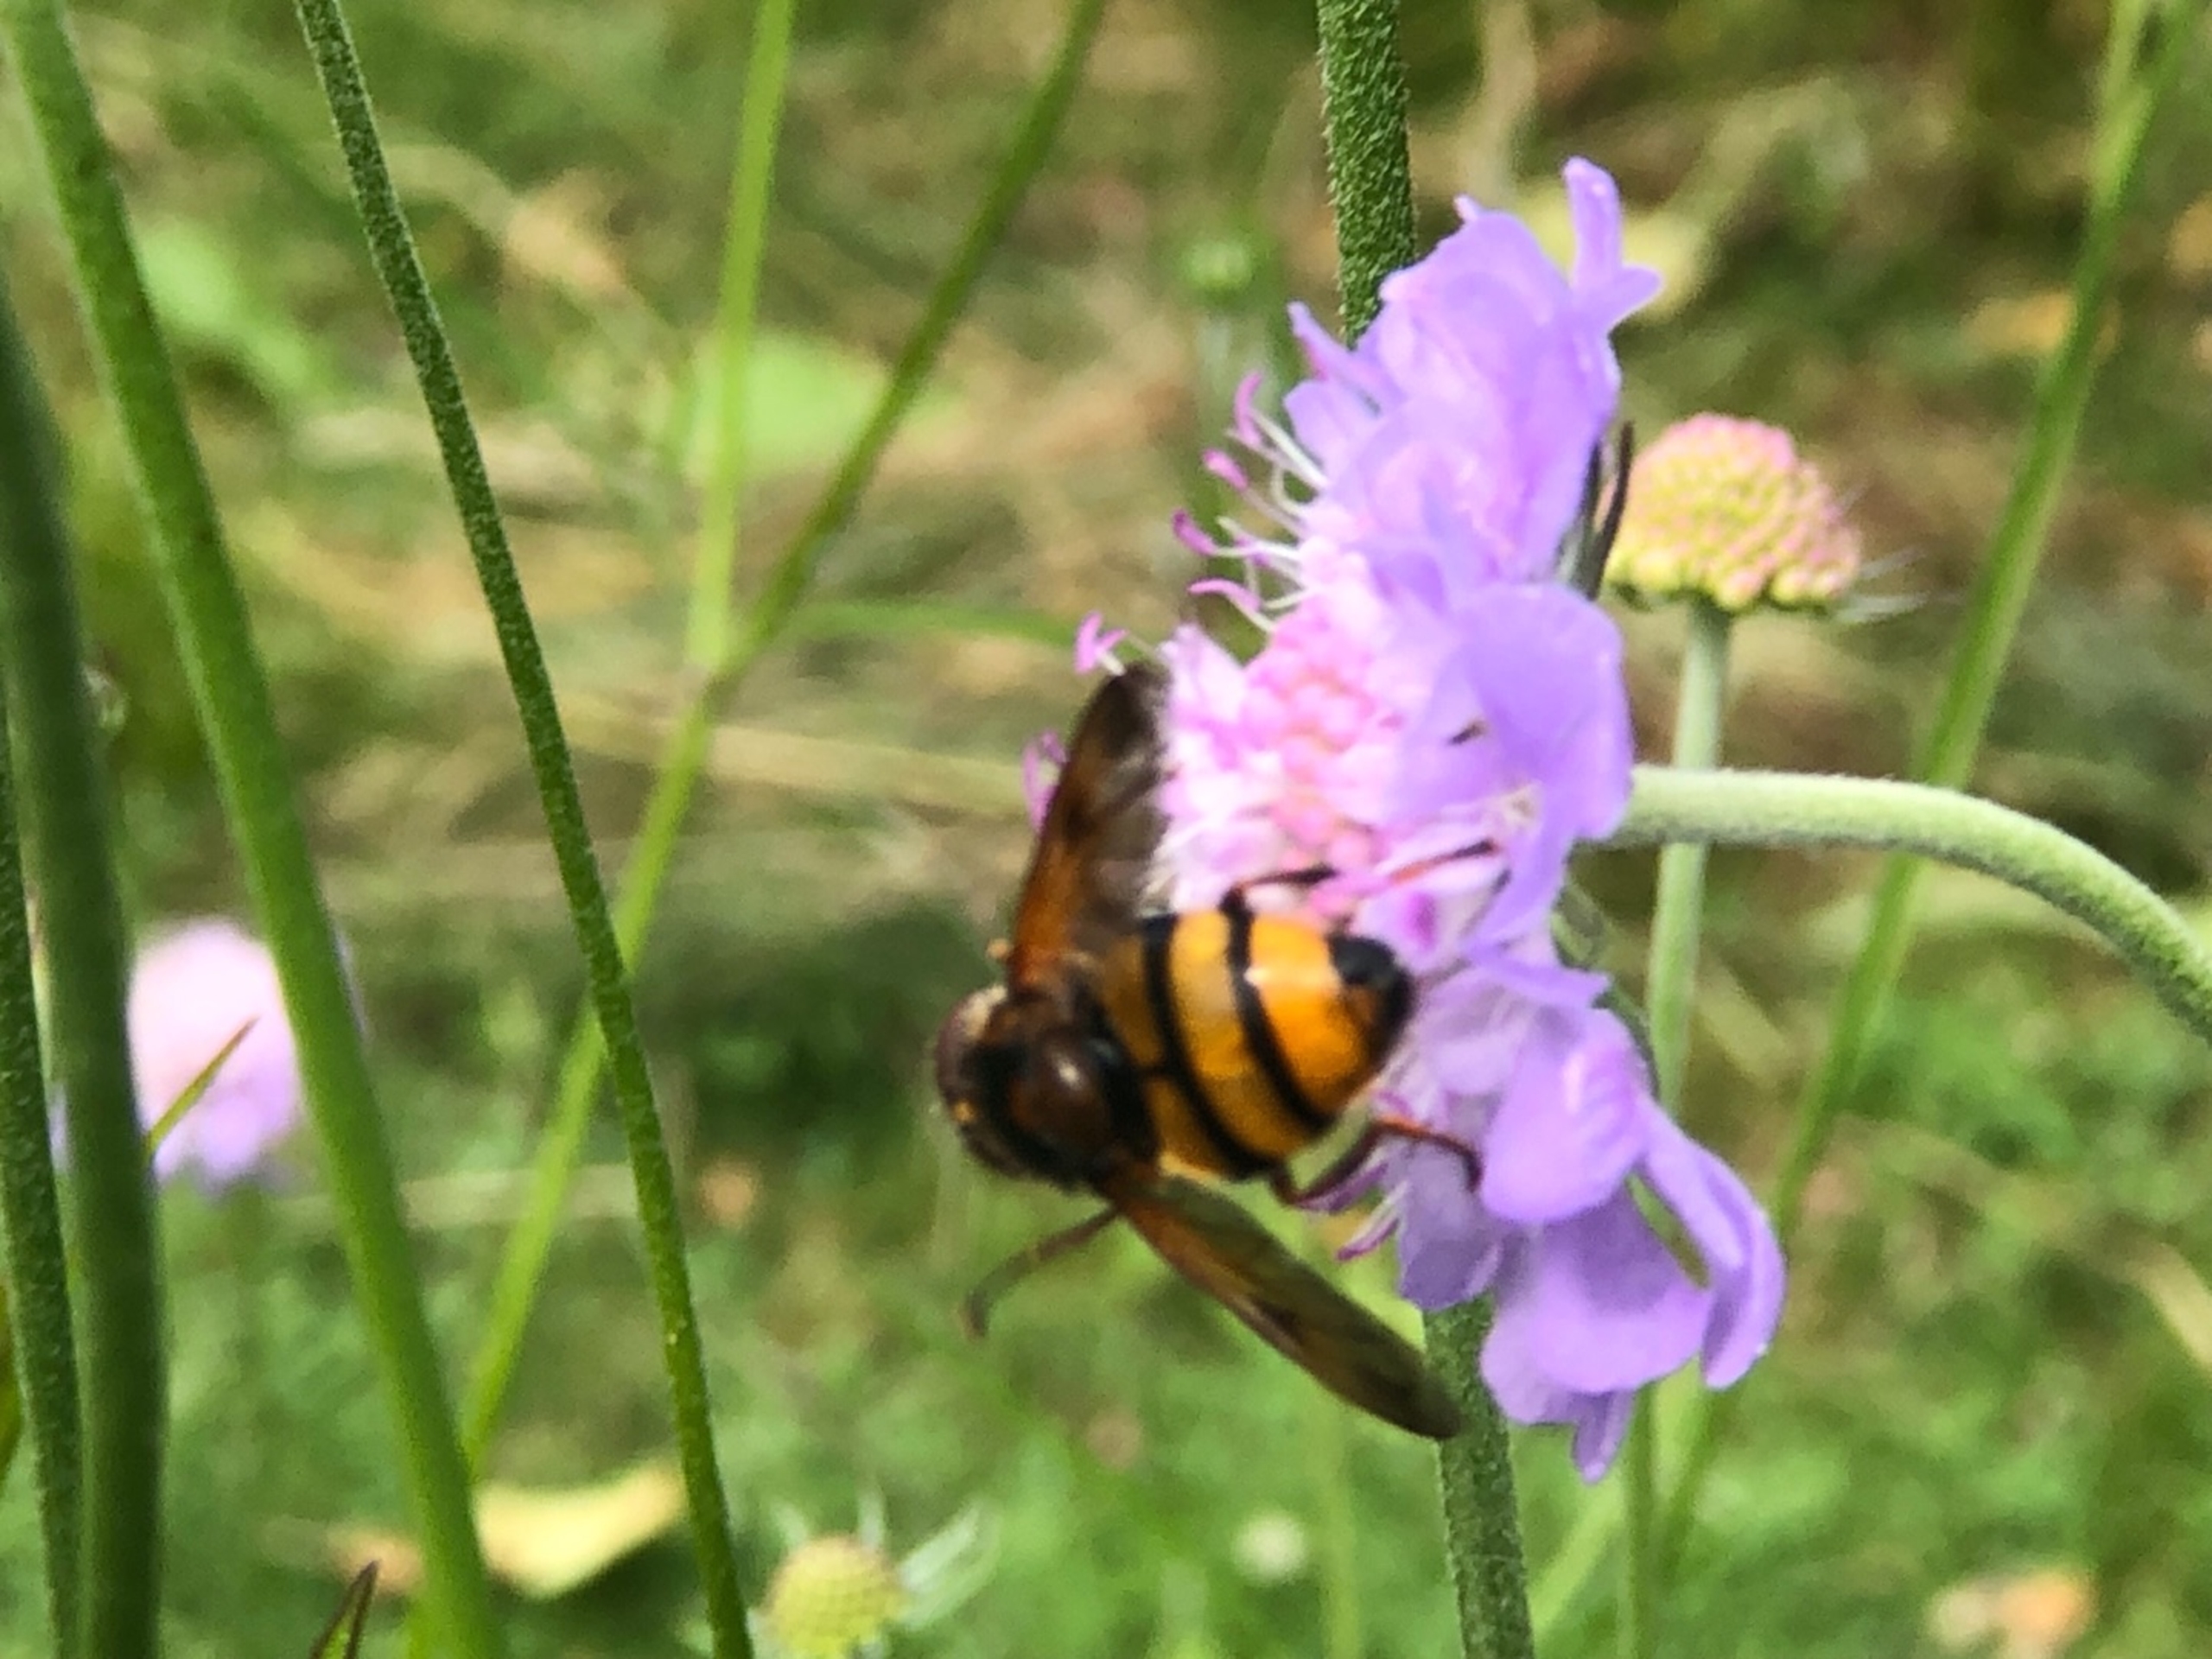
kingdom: Animalia
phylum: Arthropoda
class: Insecta
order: Diptera
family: Syrphidae
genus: Volucella
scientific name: Volucella inanis
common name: Gul humlesvirreflue
